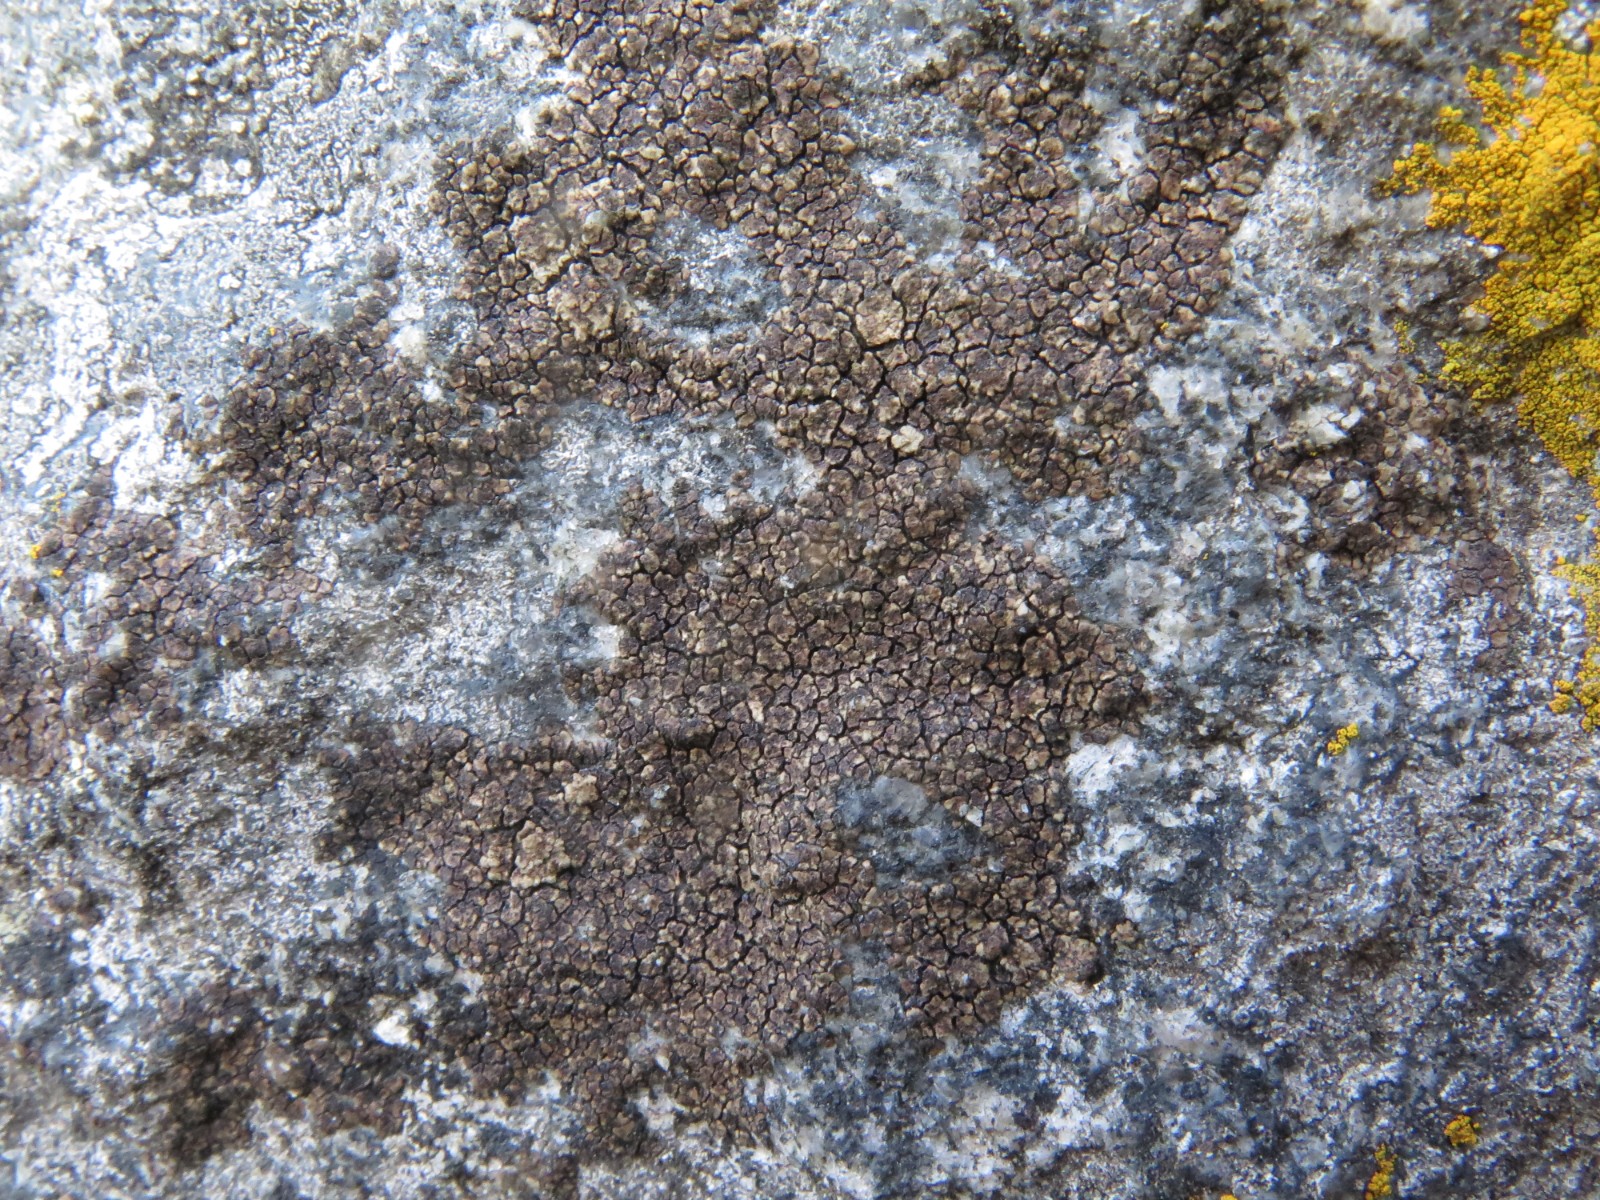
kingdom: Fungi
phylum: Ascomycota
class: Lecanoromycetes
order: Acarosporales
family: Acarosporaceae
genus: Acarospora
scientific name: Acarospora fuscata
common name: brun småsporelav
